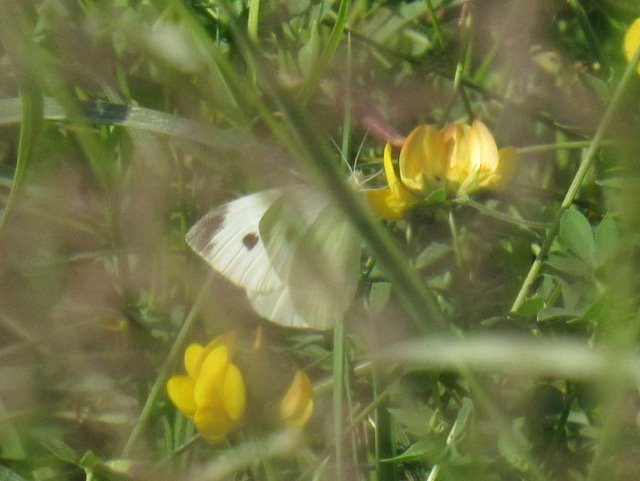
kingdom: Animalia
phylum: Arthropoda
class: Insecta
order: Lepidoptera
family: Pieridae
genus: Pieris
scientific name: Pieris rapae
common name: Cabbage White
